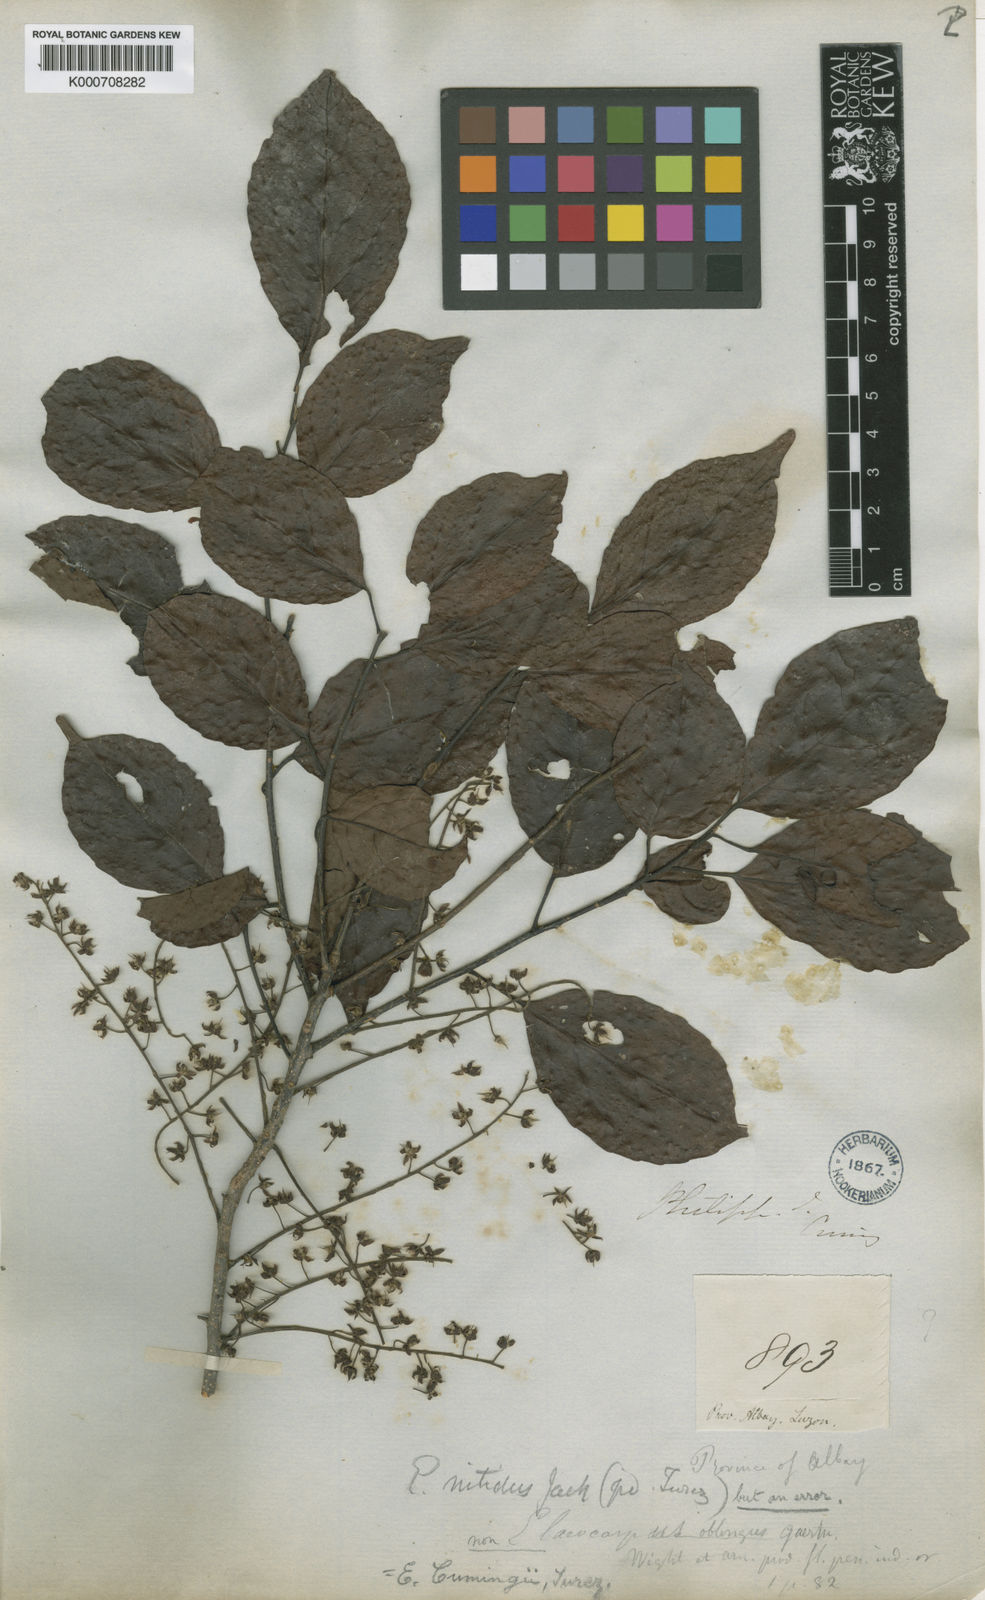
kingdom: Plantae
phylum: Tracheophyta
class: Magnoliopsida
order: Oxalidales
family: Elaeocarpaceae
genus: Elaeocarpus
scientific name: Elaeocarpus cumingii
